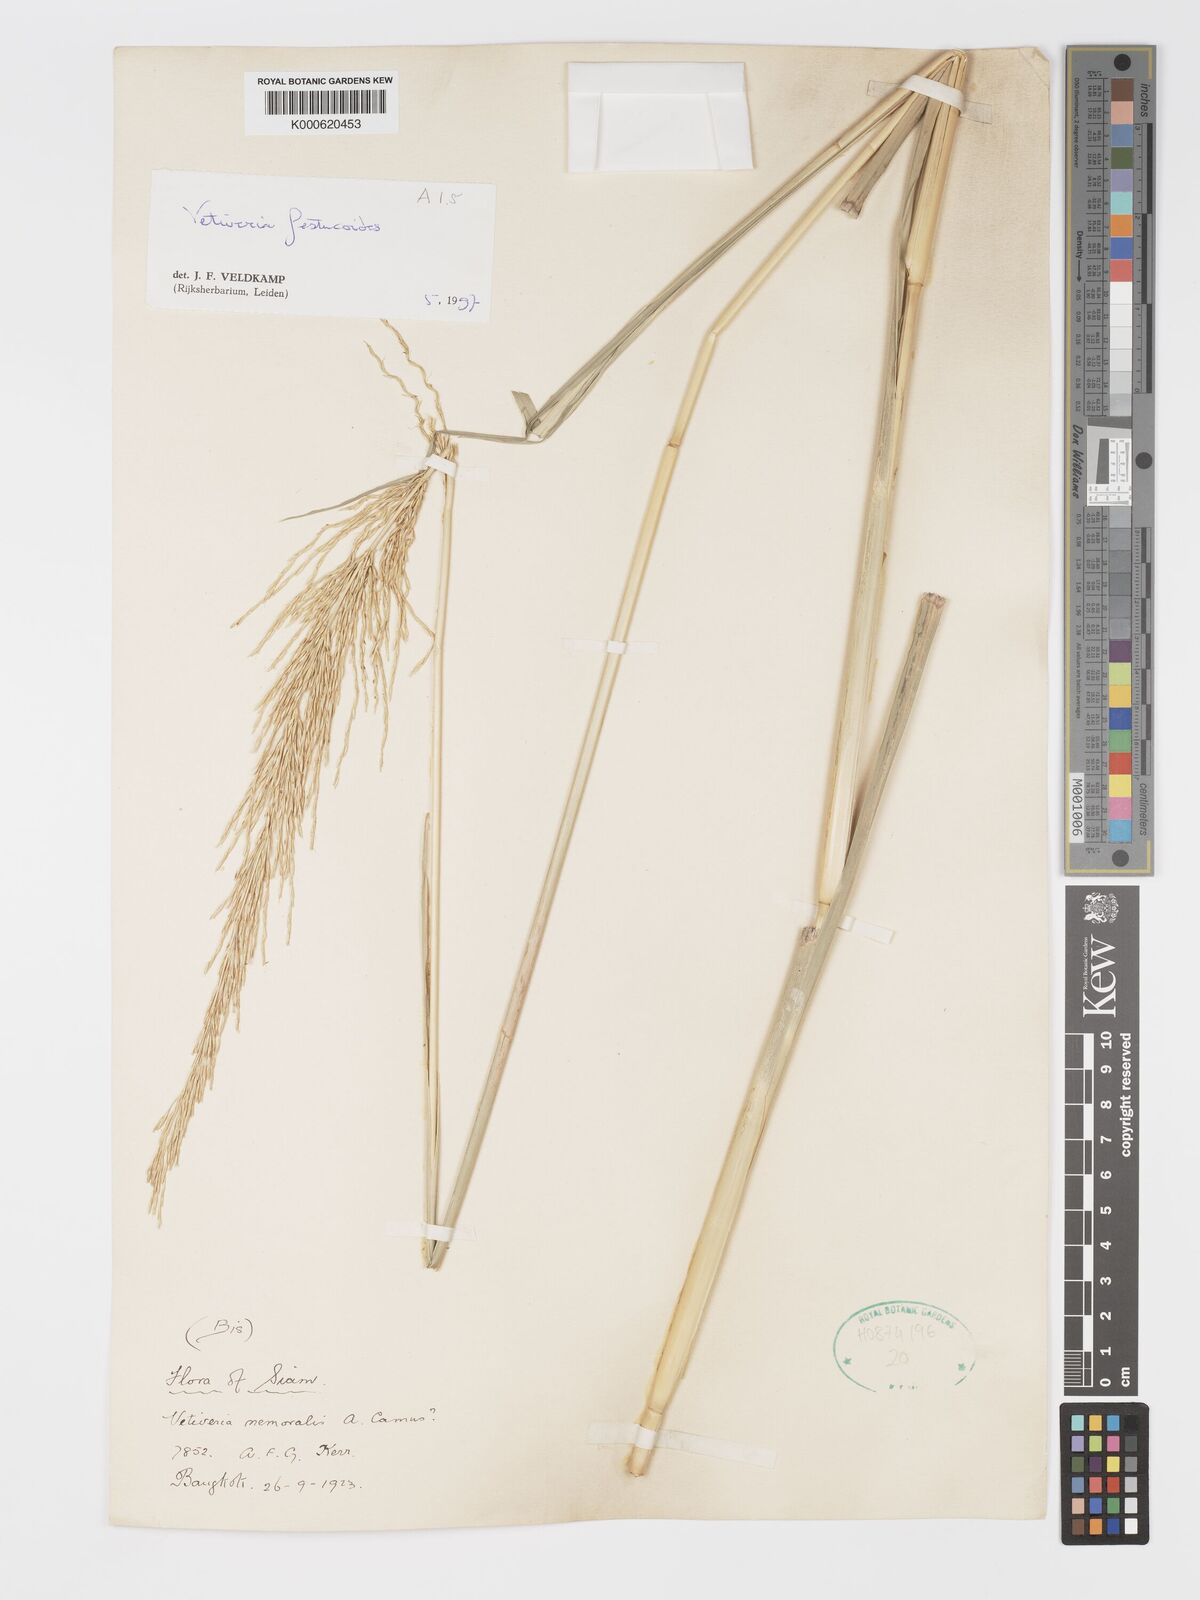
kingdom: Plantae
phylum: Tracheophyta
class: Liliopsida
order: Poales
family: Poaceae
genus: Chrysopogon
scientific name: Chrysopogon festucoides
